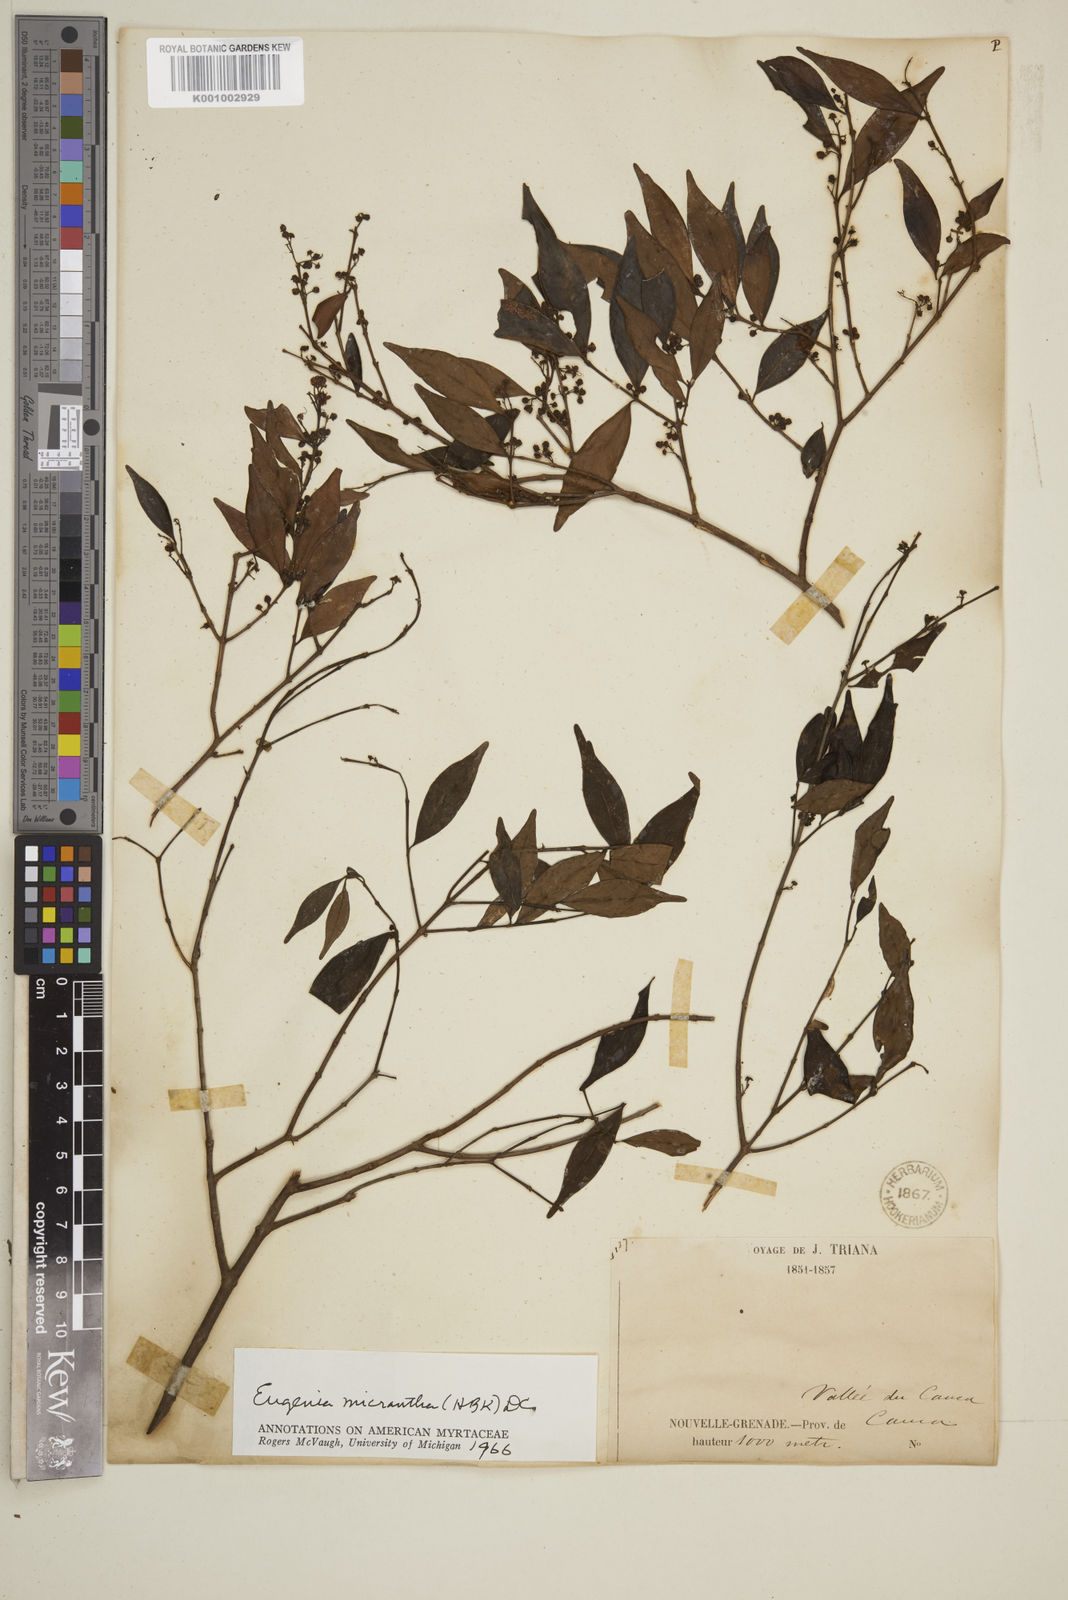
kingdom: Plantae
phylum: Tracheophyta
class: Magnoliopsida
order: Myrtales
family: Myrtaceae
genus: Eugenia
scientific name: Eugenia monticola
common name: Birds berry
